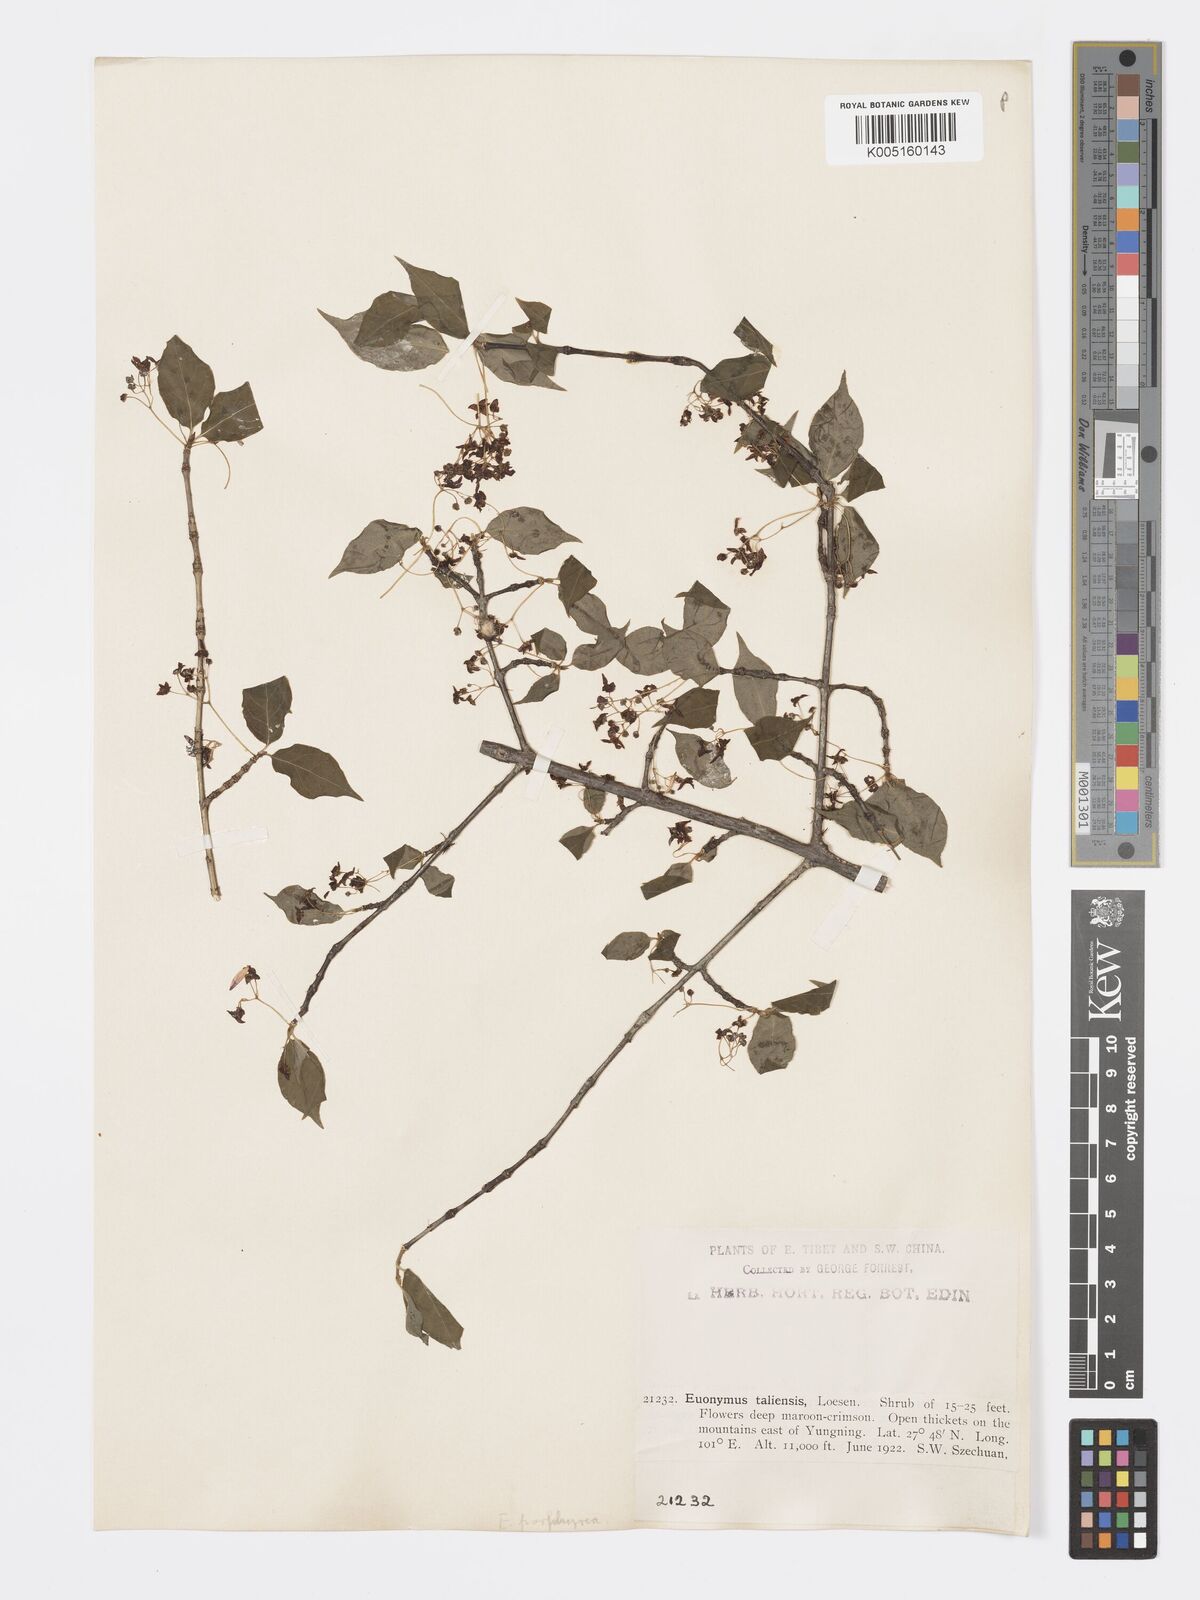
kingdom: Plantae
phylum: Tracheophyta
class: Magnoliopsida
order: Celastrales
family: Celastraceae
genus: Euonymus
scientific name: Euonymus frigidus
